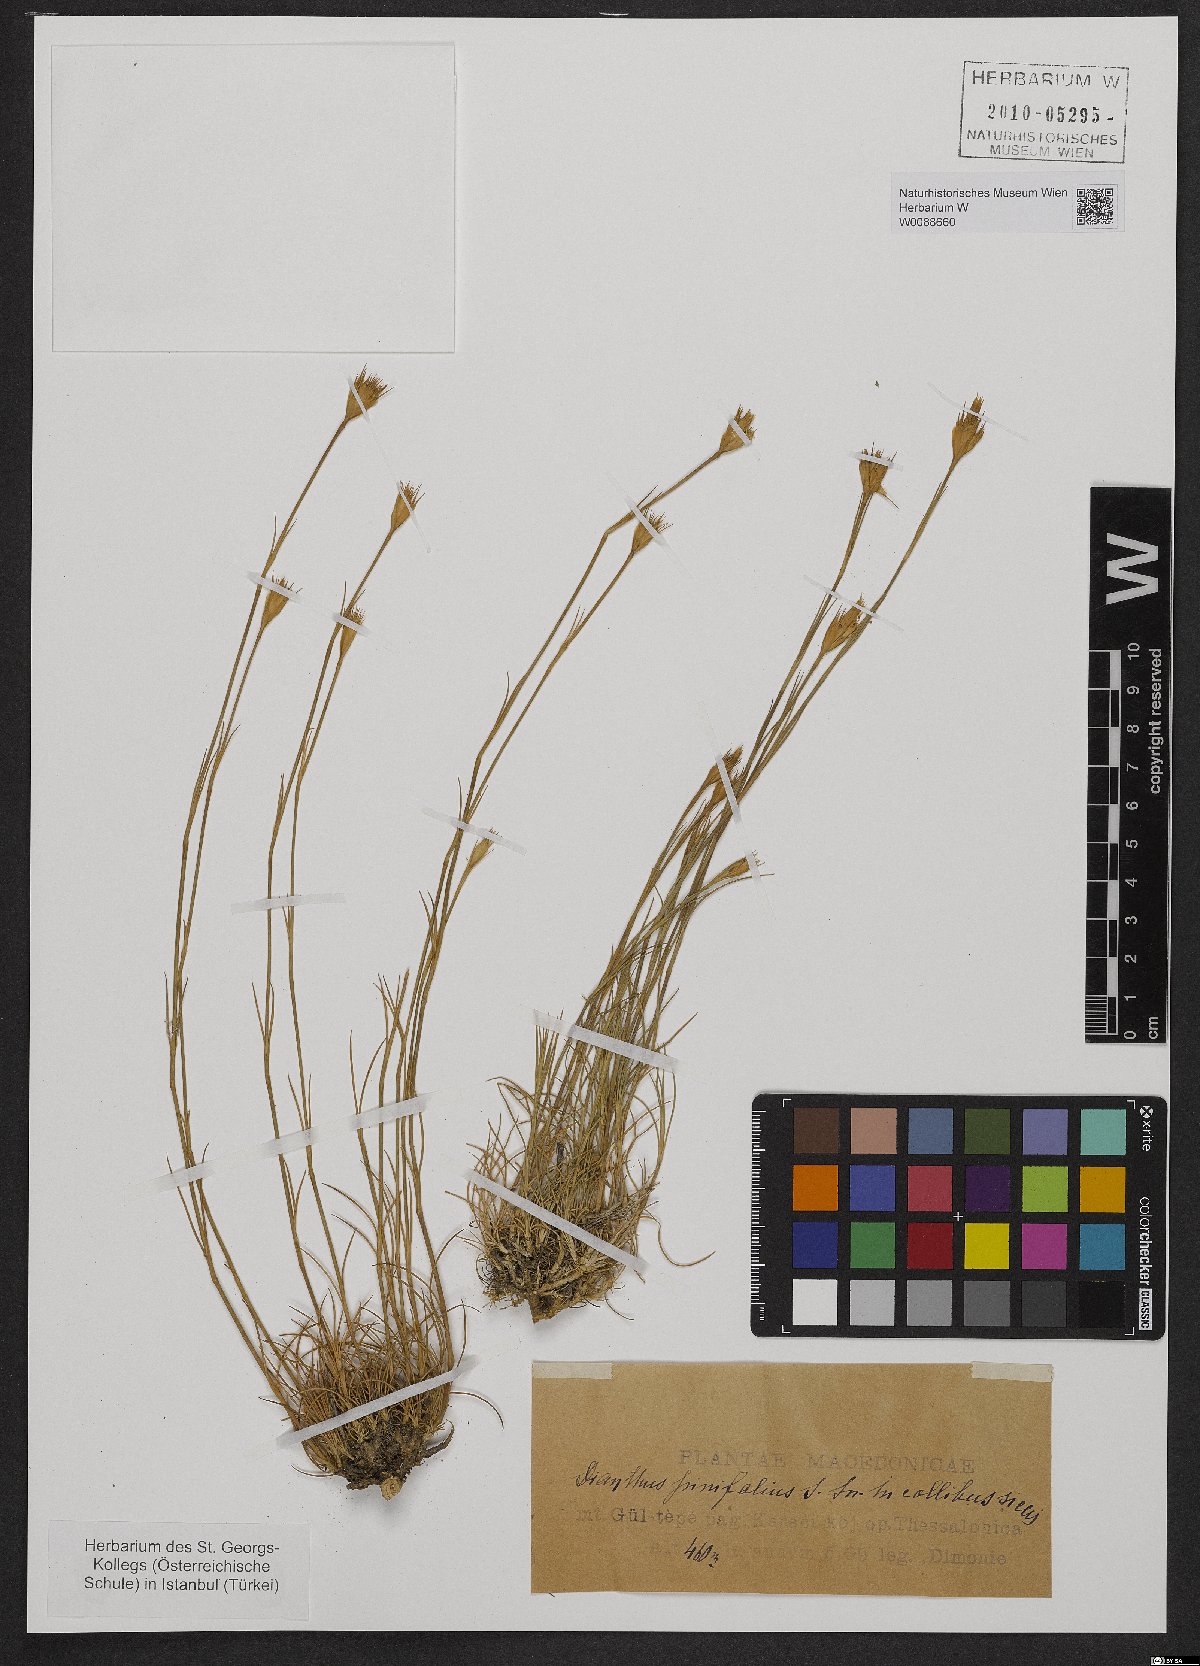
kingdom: Plantae
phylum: Tracheophyta
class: Magnoliopsida
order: Caryophyllales
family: Caryophyllaceae
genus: Dianthus
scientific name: Dianthus pinifolius
